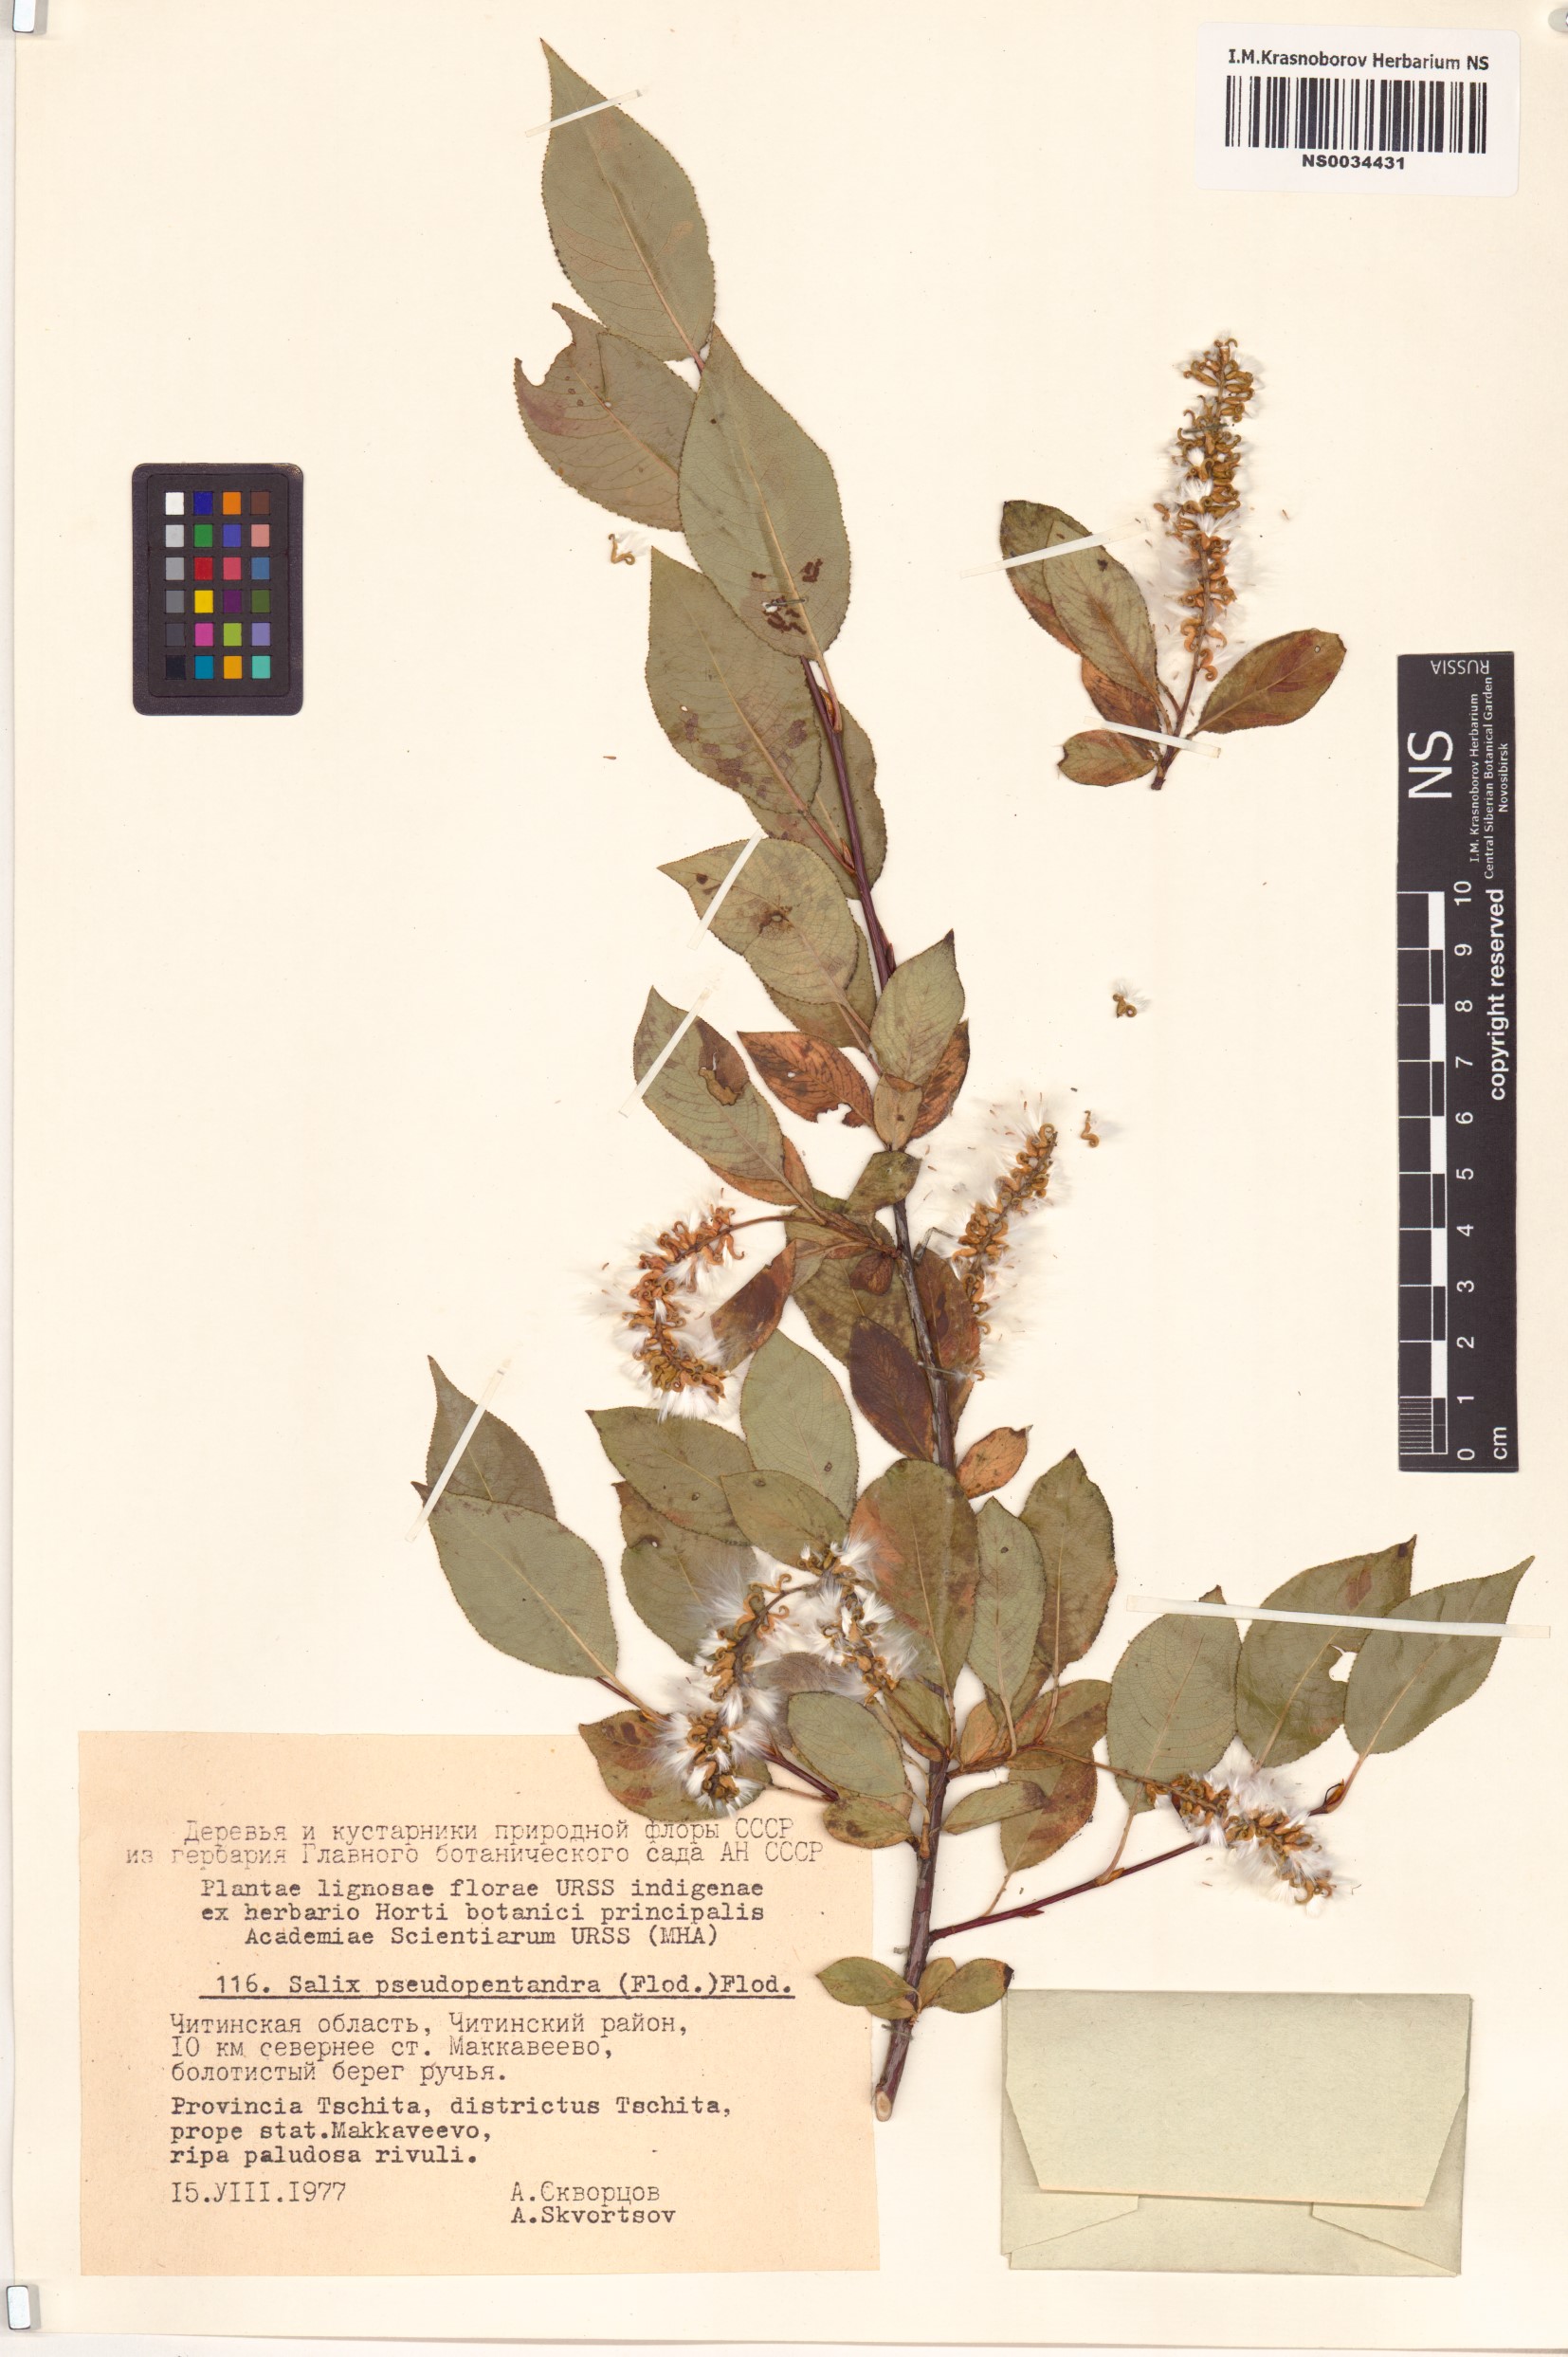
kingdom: Plantae
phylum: Tracheophyta
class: Magnoliopsida
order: Malpighiales
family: Salicaceae
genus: Salix
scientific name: Salix pseudopentandra
